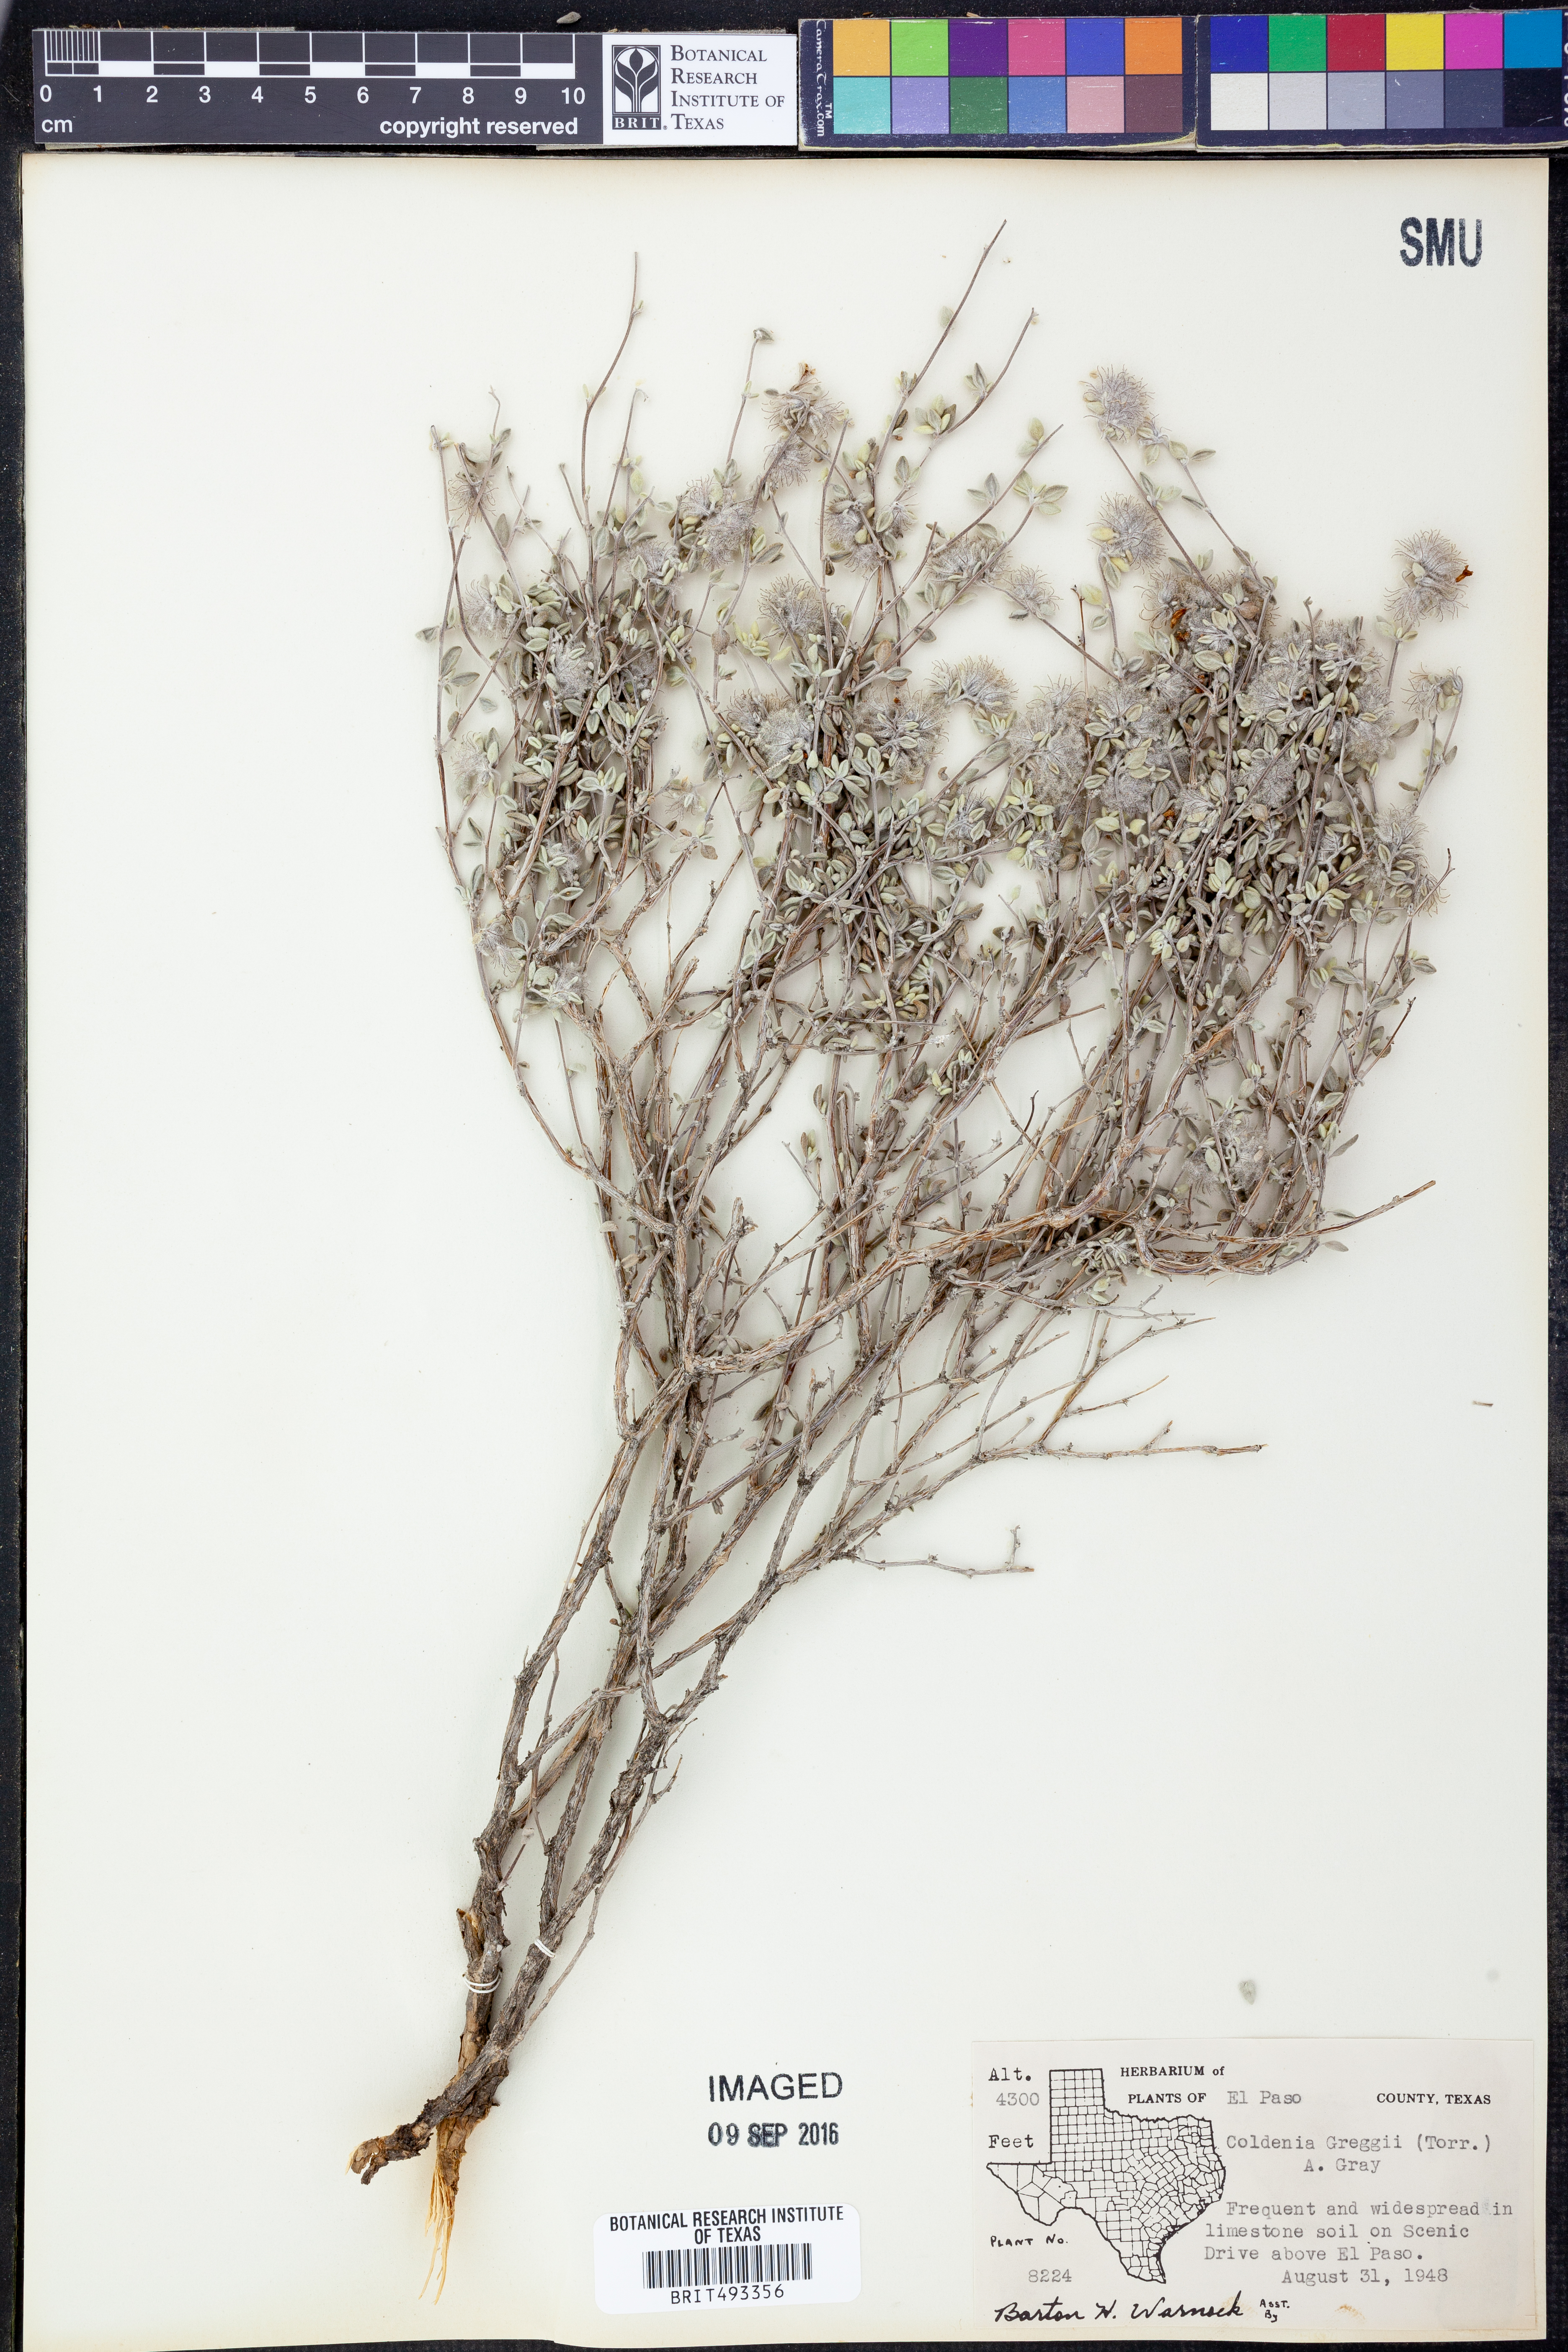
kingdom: Plantae
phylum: Tracheophyta
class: Magnoliopsida
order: Boraginales
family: Ehretiaceae
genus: Tiquilia
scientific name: Tiquilia greggii
